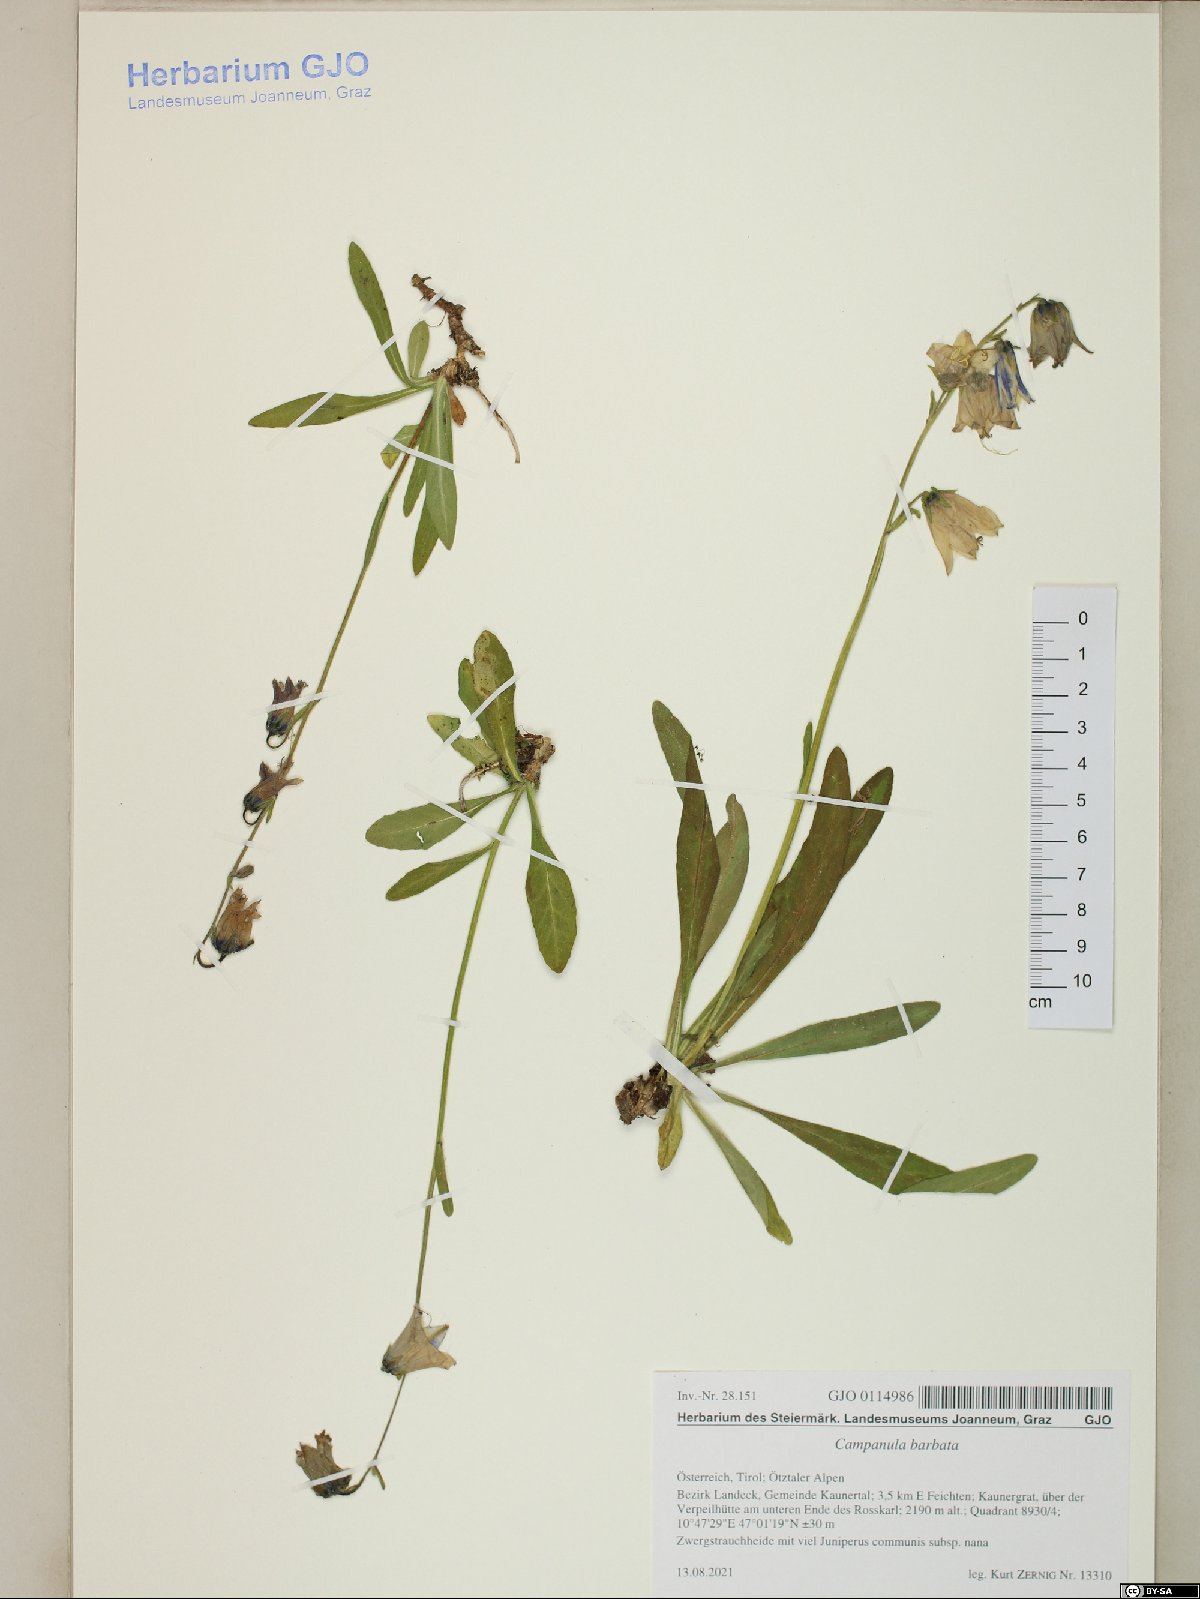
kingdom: Plantae
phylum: Tracheophyta
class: Magnoliopsida
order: Asterales
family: Campanulaceae
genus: Campanula
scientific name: Campanula barbata
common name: Bearded bellflower
